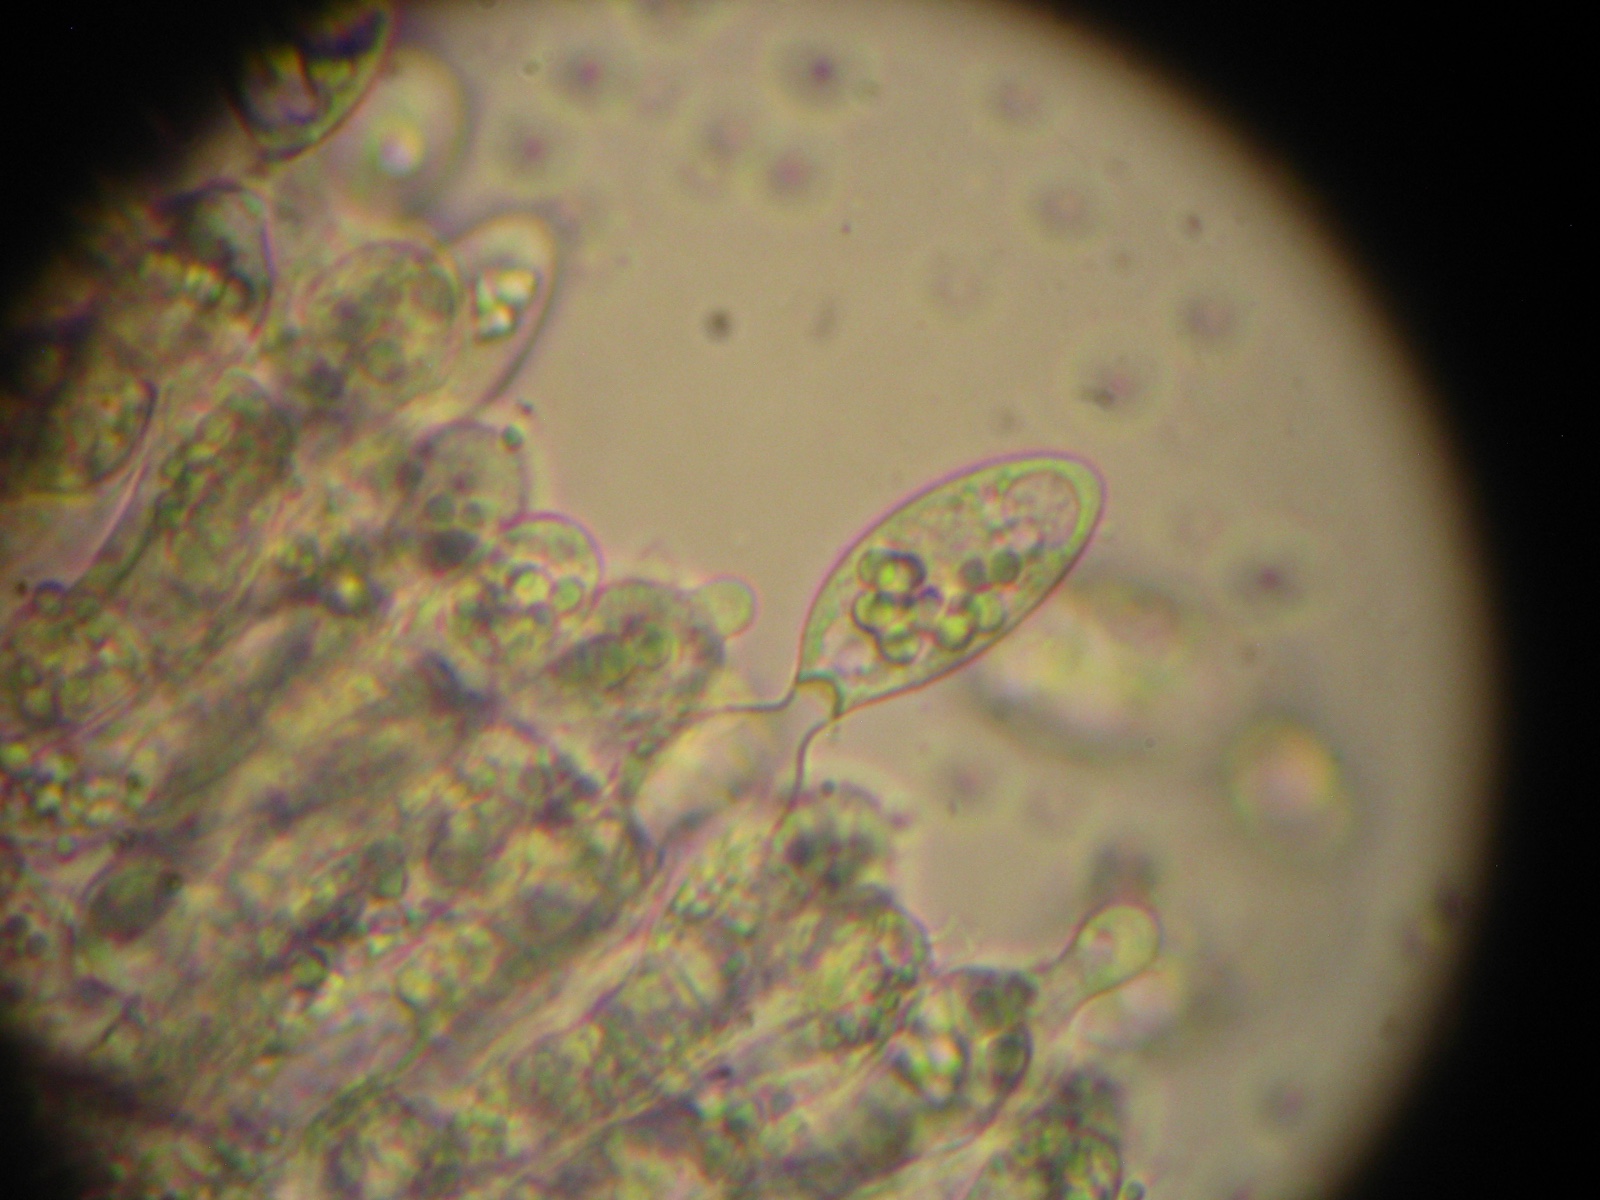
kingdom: Fungi
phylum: Entomophthoromycota
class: Entomophthoromycetes
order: Entomophthorales
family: Entomophthoraceae
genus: Erynia
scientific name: Erynia
